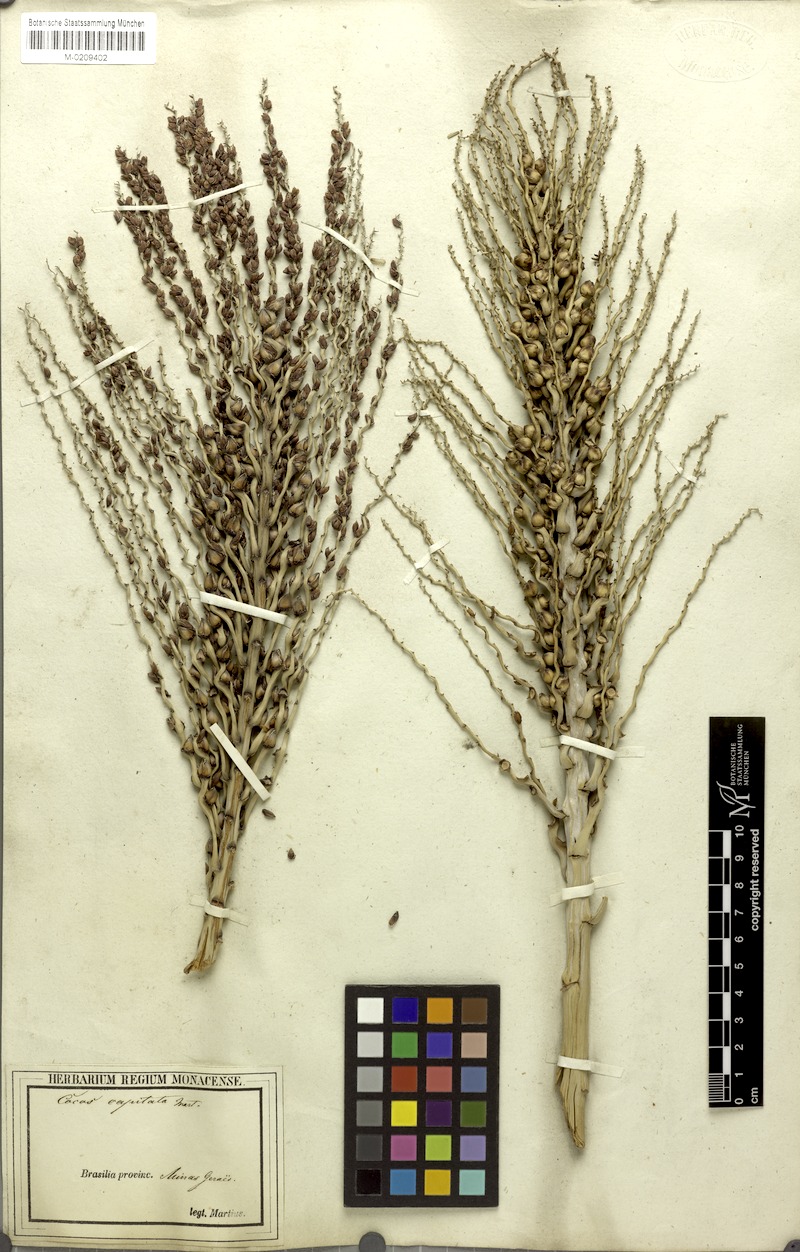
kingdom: Plantae
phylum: Tracheophyta
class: Liliopsida
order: Arecales
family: Arecaceae
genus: Butia
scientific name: Butia capitata
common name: South american jelly palm
